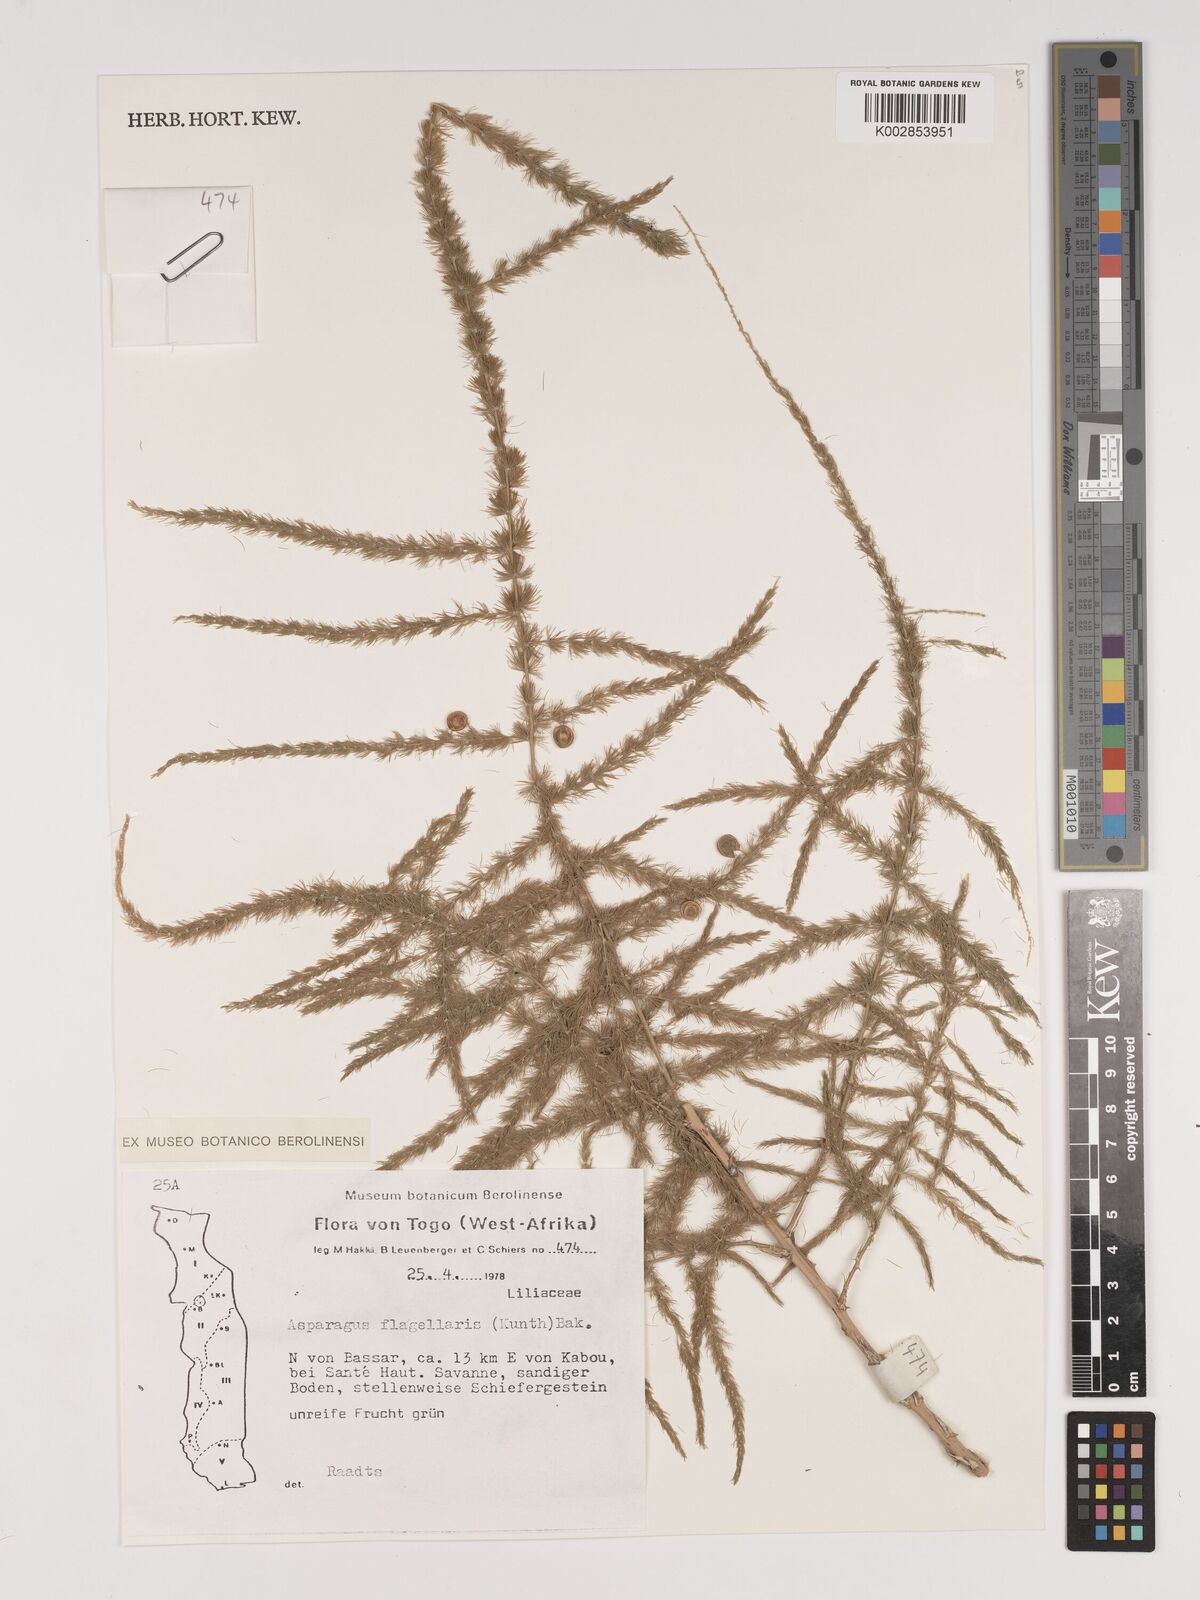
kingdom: Plantae
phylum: Tracheophyta
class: Liliopsida
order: Asparagales
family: Asparagaceae
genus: Asparagus
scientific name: Asparagus flagellaris
